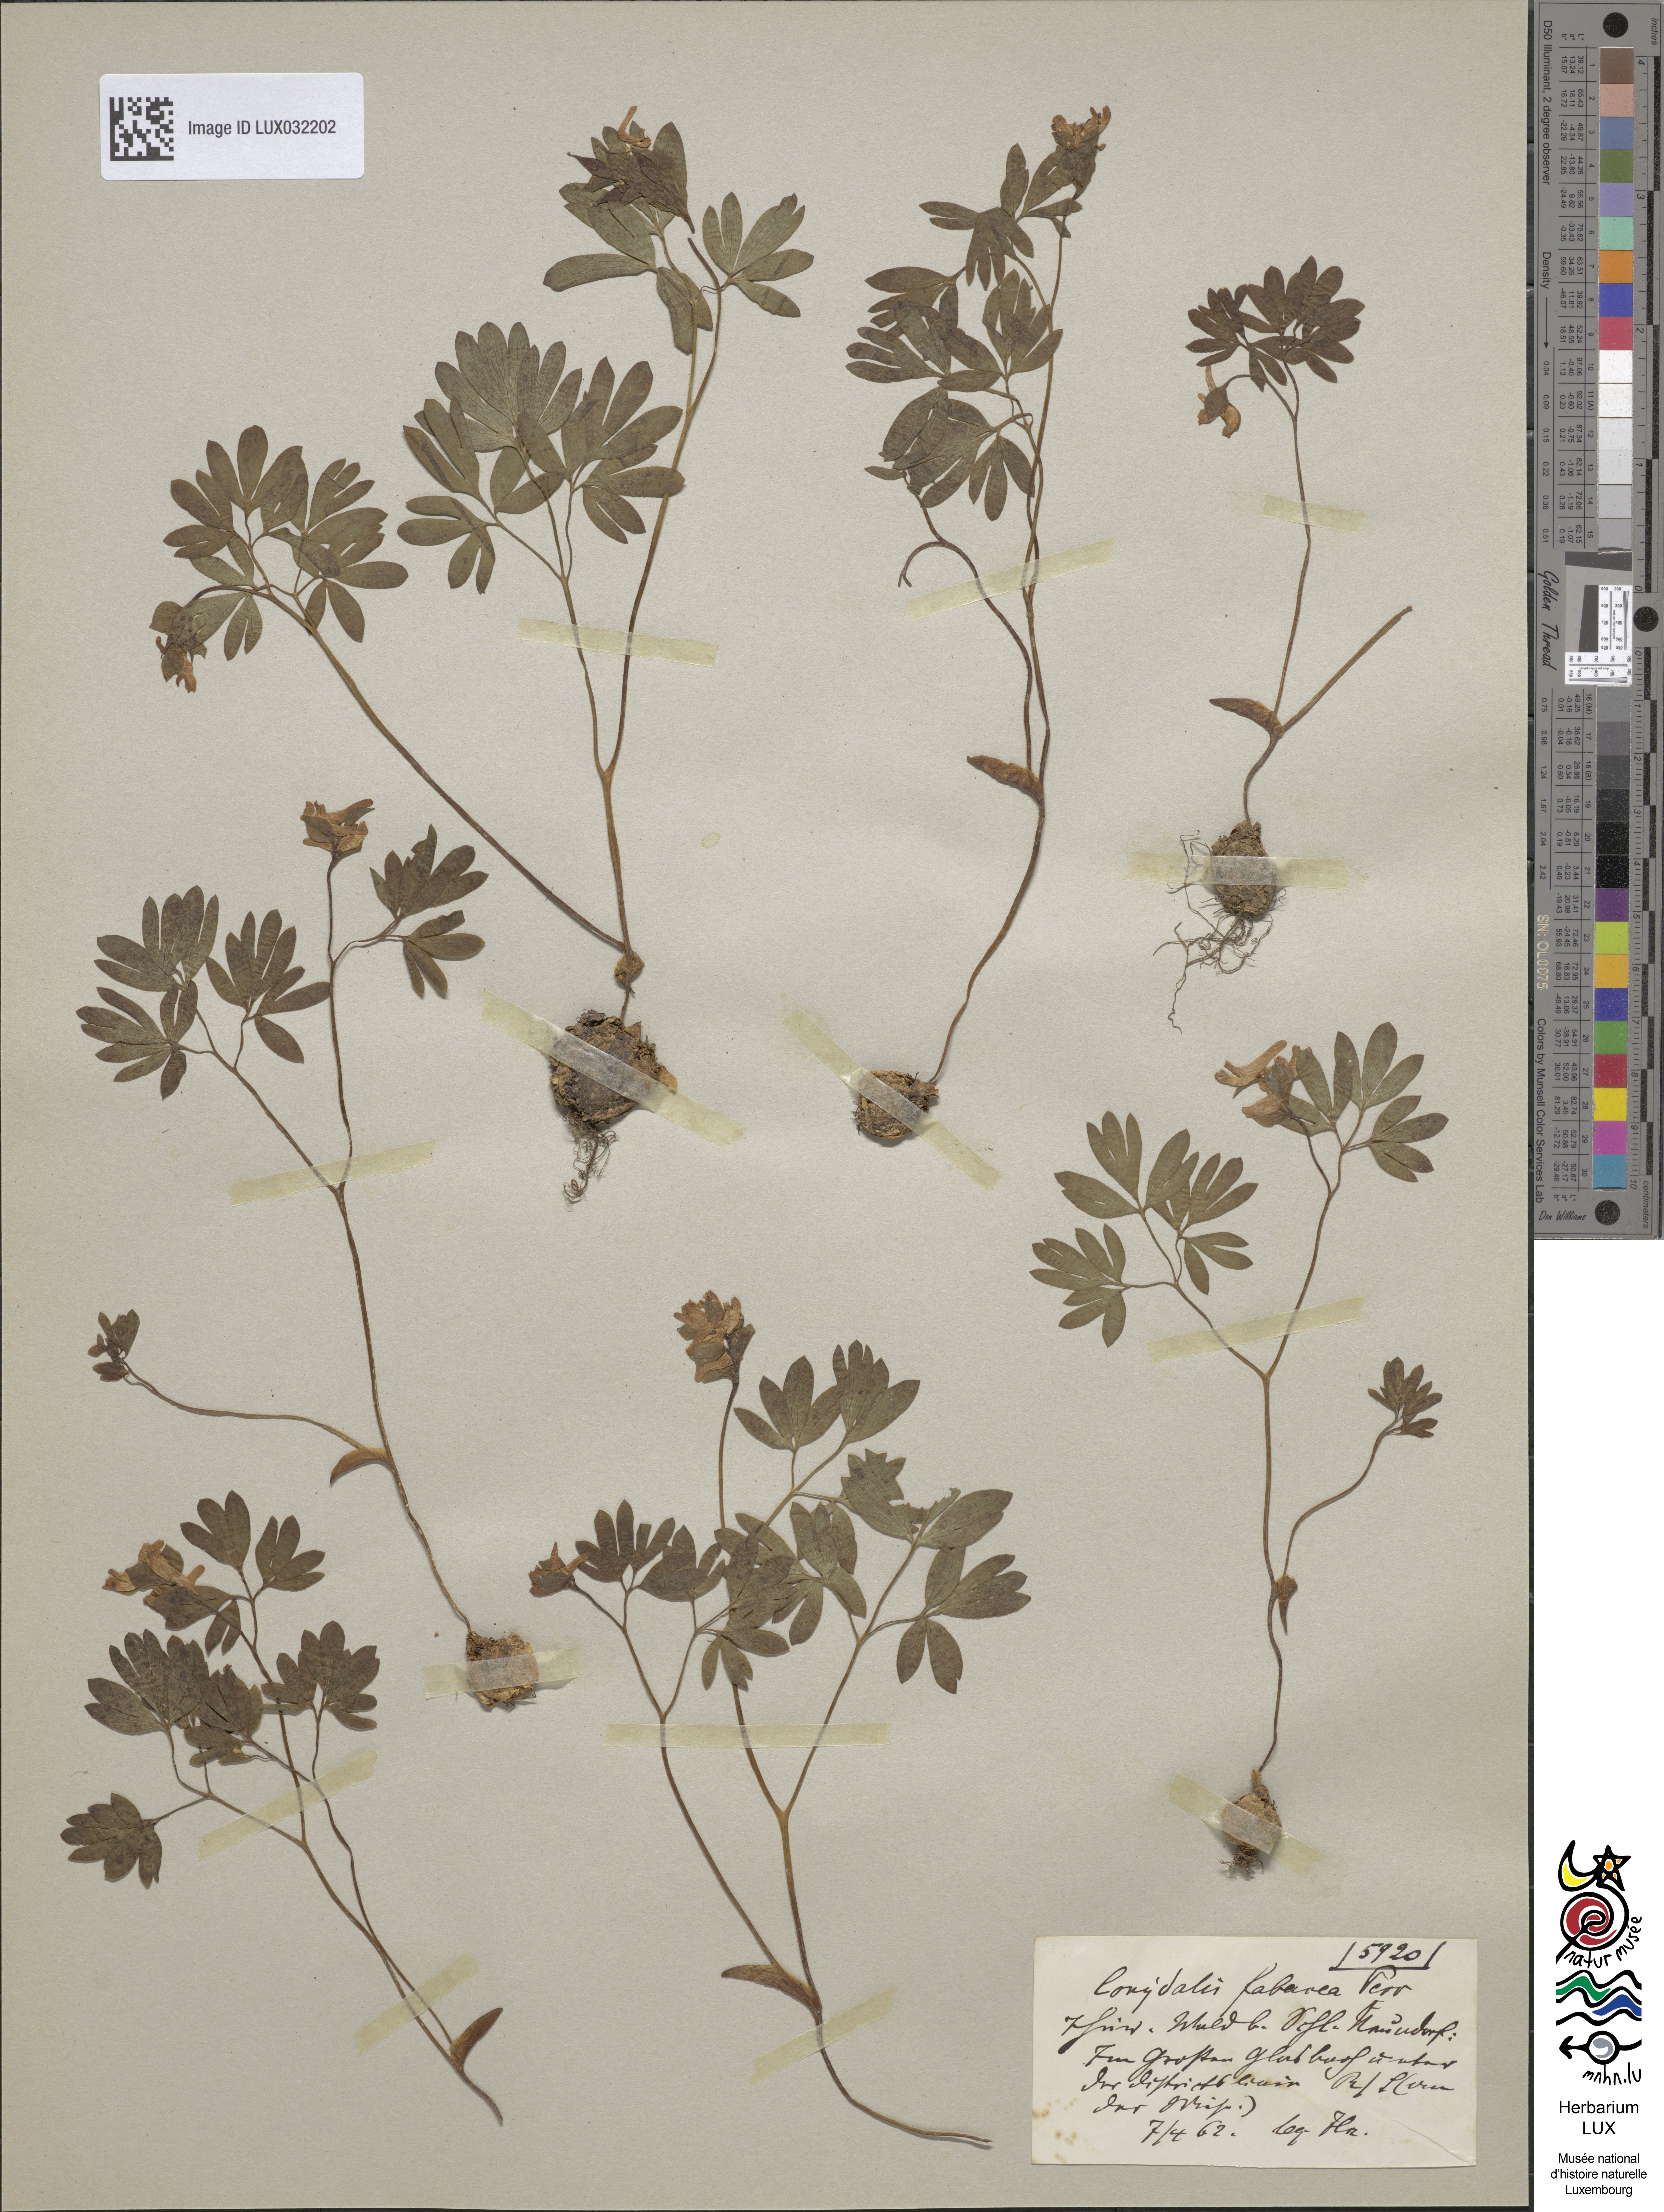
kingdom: Plantae
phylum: Tracheophyta
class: Magnoliopsida
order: Ranunculales
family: Papaveraceae
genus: Corydalis
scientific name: Corydalis intermedia
